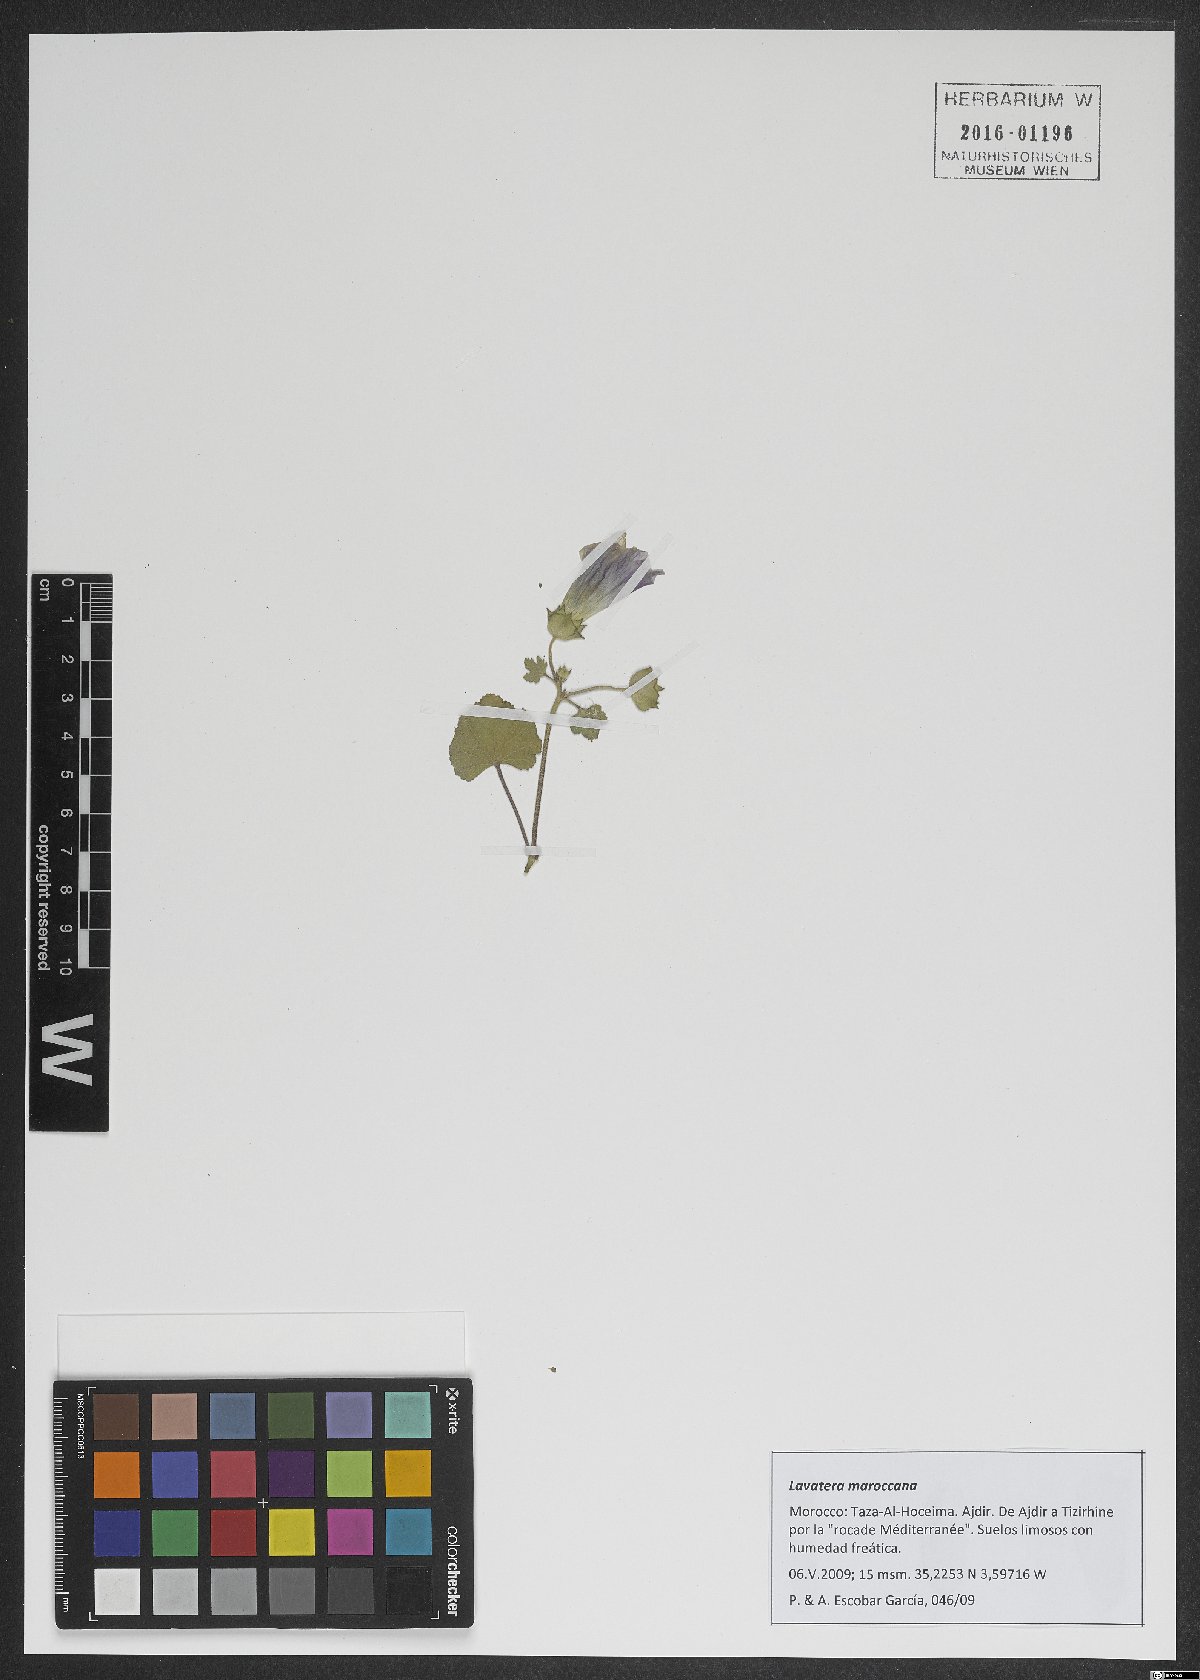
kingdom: Plantae
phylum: Tracheophyta
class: Magnoliopsida
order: Malvales
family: Malvaceae
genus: Malva
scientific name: Malva maroccana
